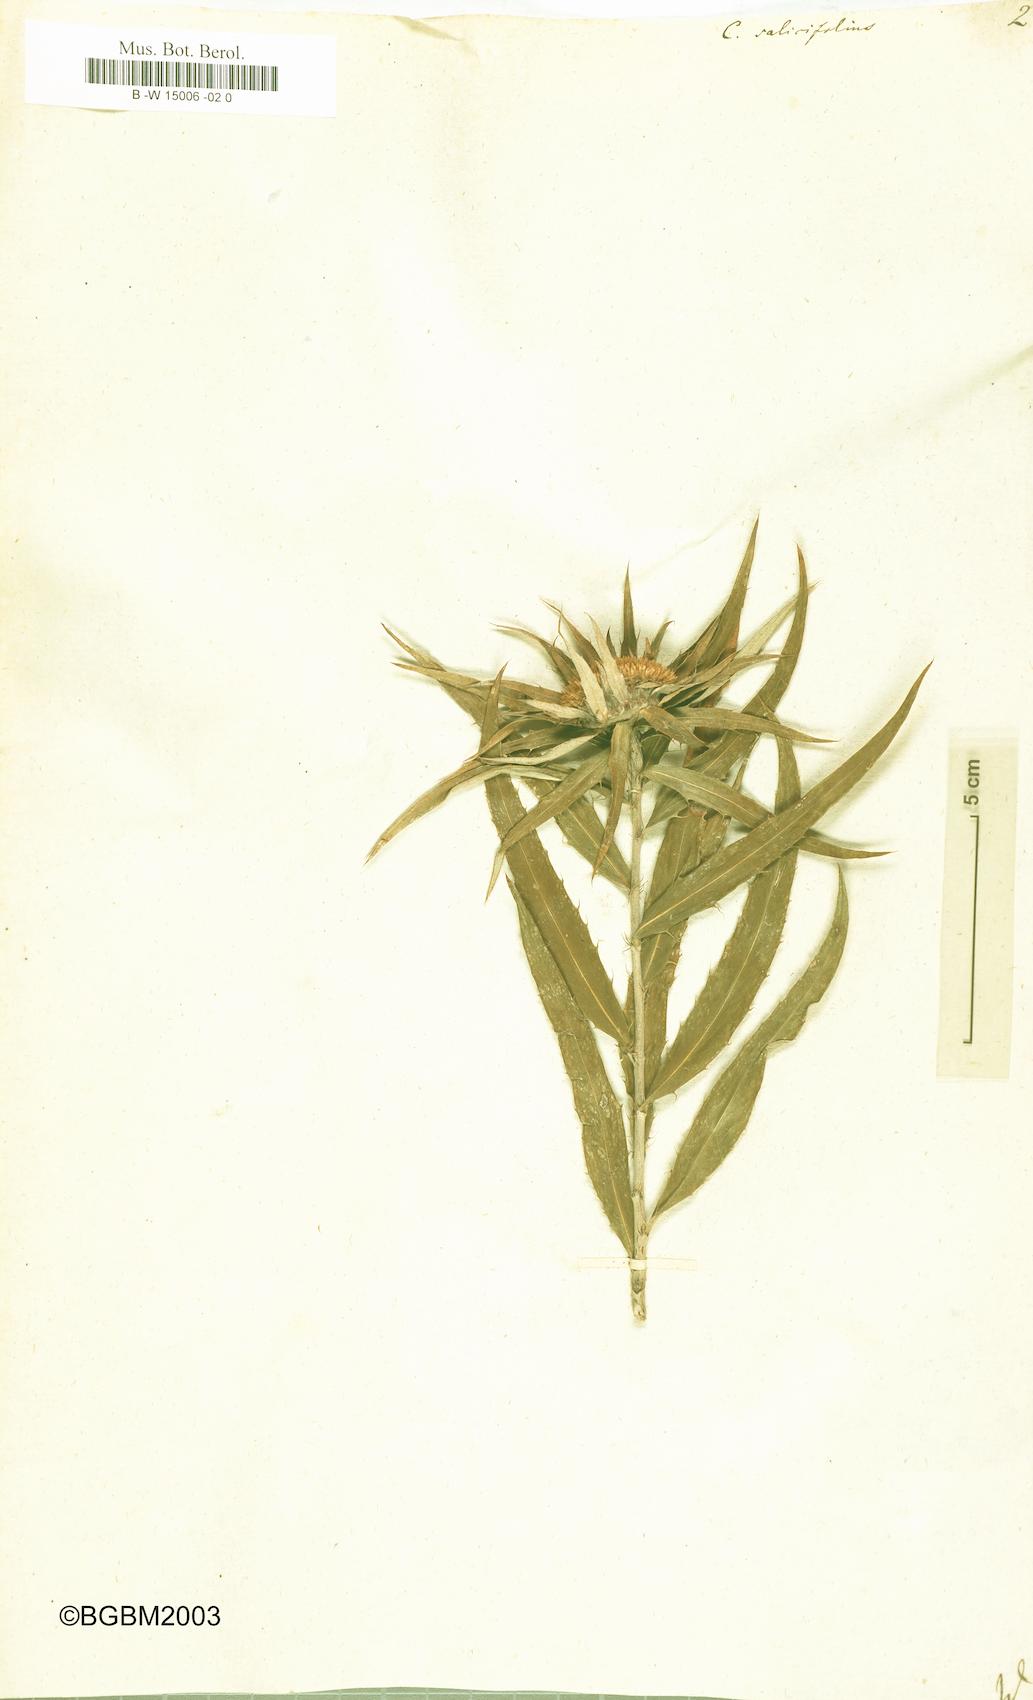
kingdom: Plantae
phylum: Tracheophyta
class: Magnoliopsida
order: Asterales
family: Asteraceae
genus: Carlina
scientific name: Carlina salicifolia
